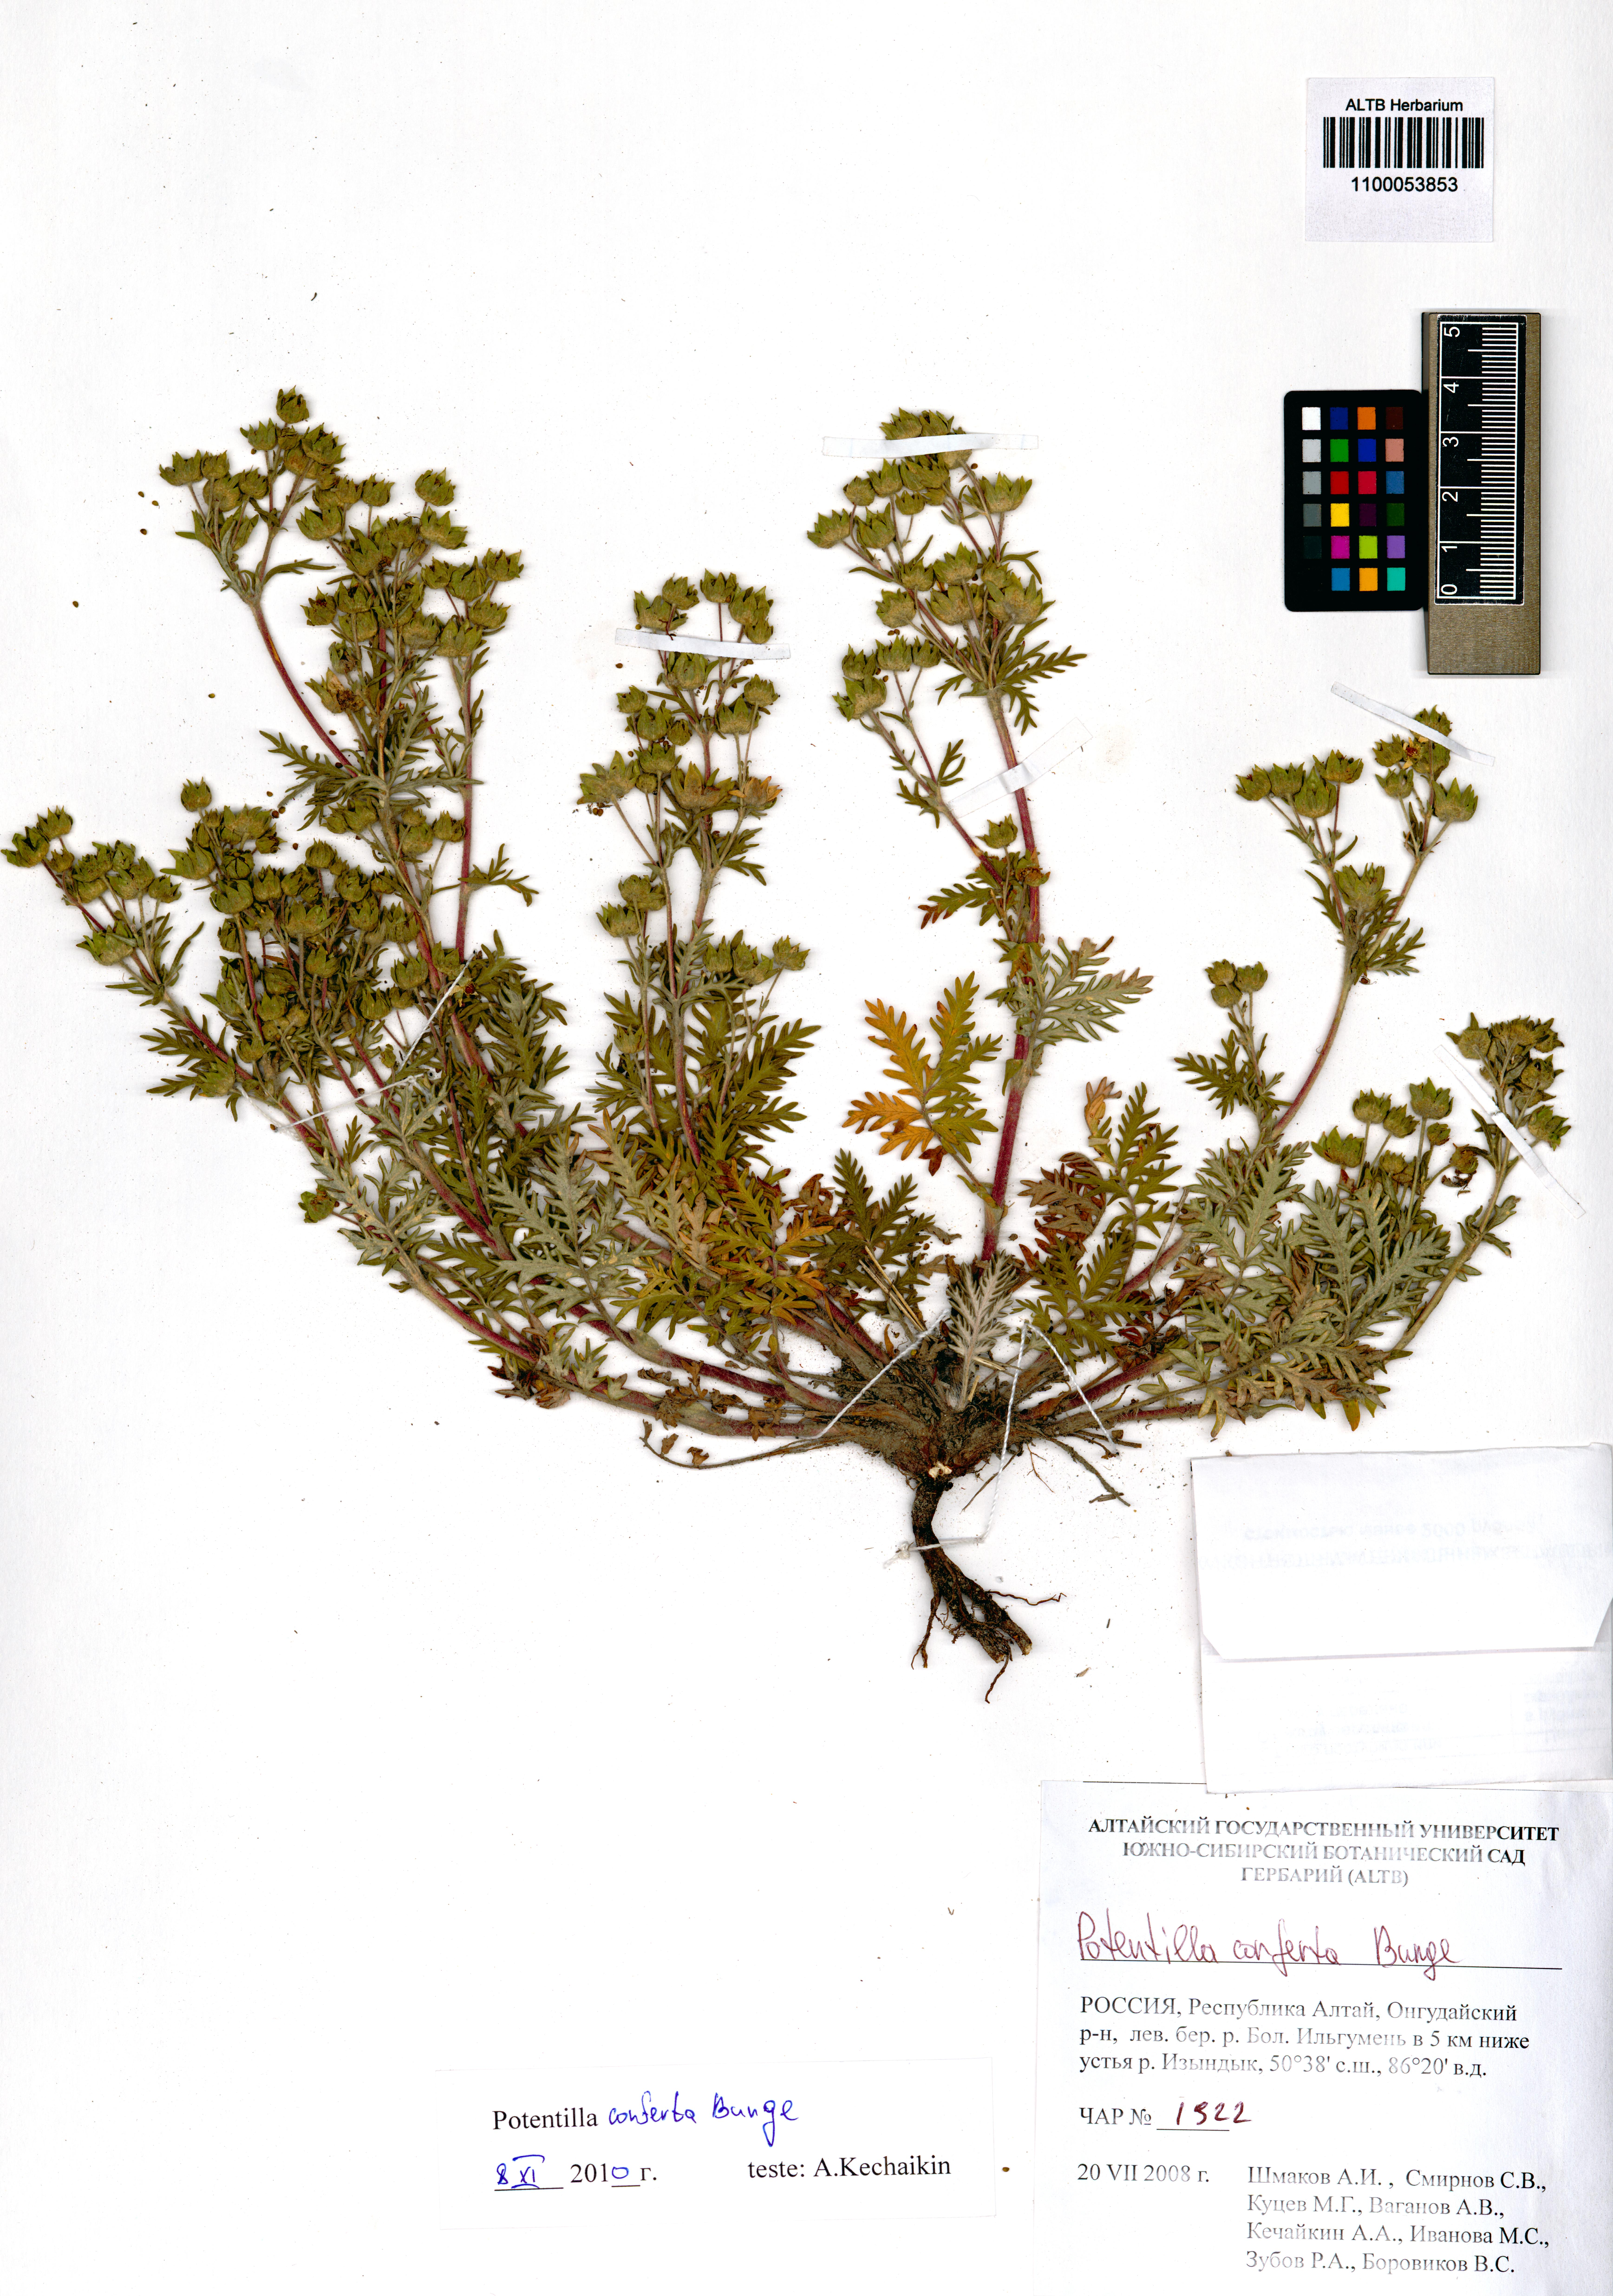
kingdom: Plantae
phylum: Tracheophyta
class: Magnoliopsida
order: Rosales
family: Rosaceae
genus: Potentilla
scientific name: Potentilla conferta
